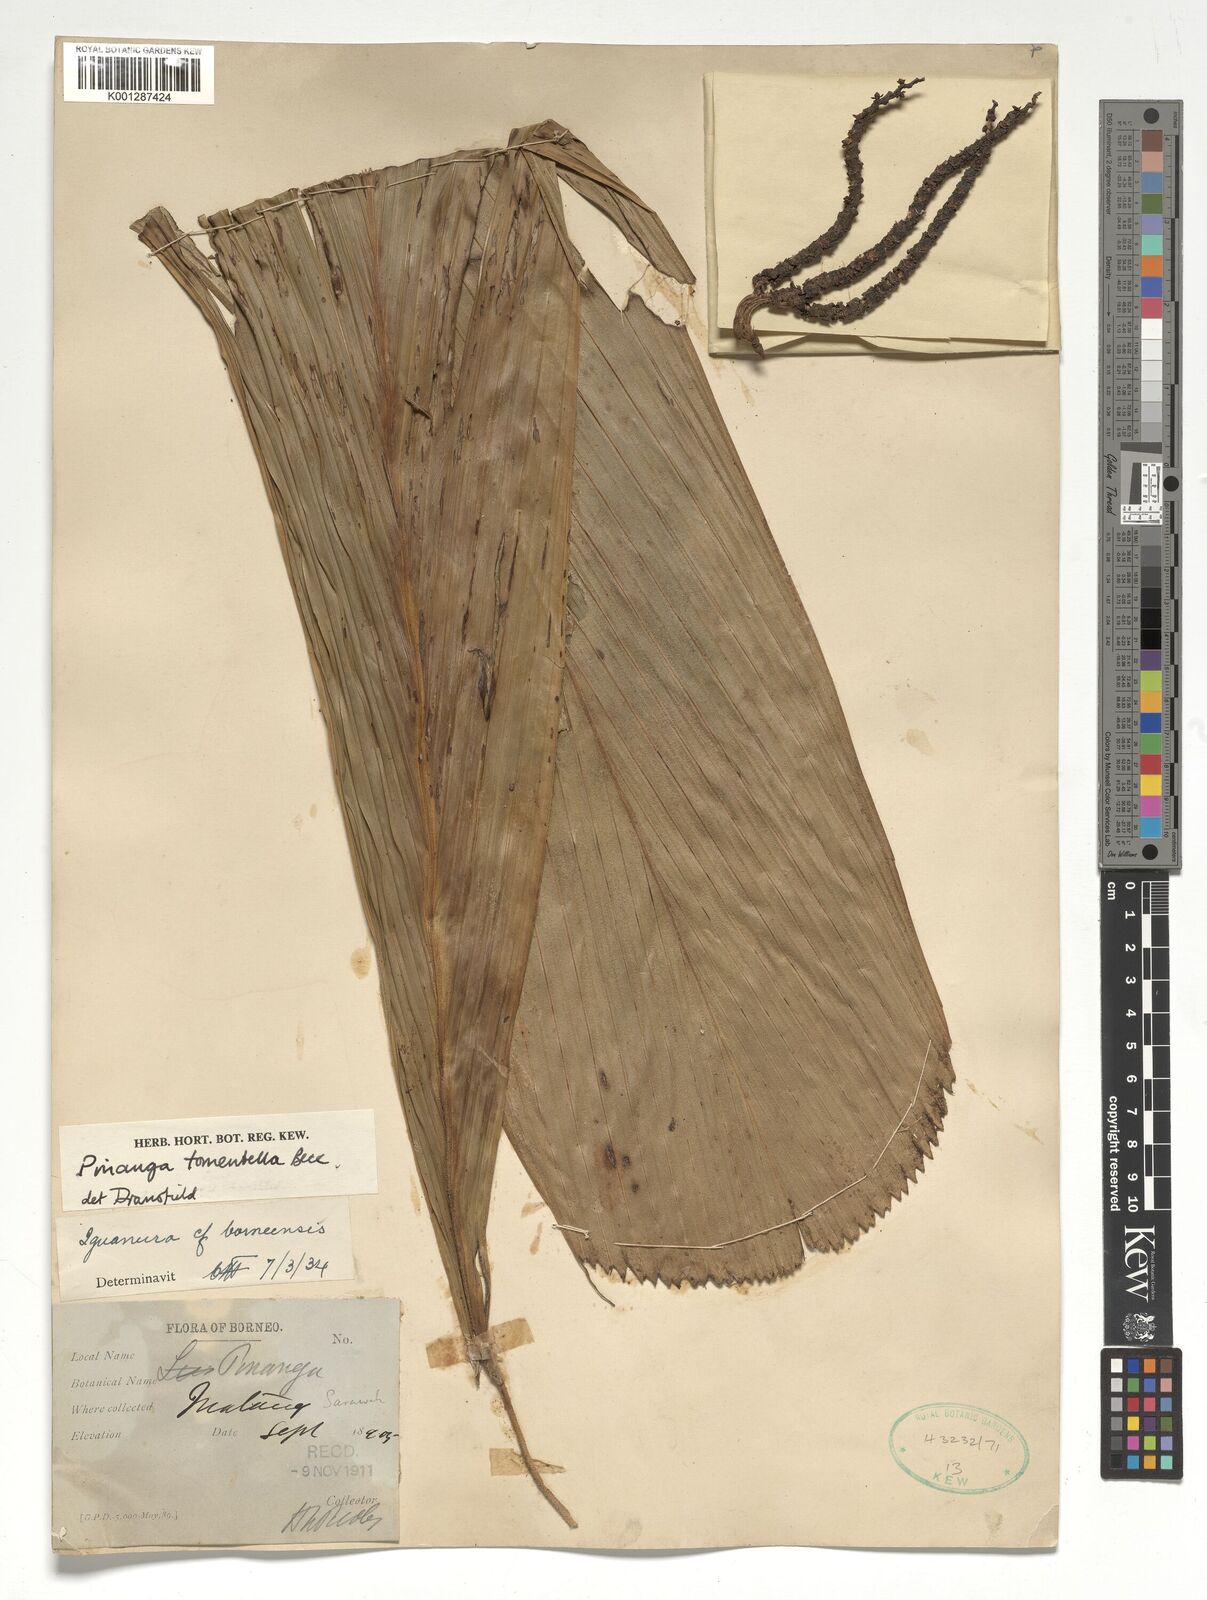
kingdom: Plantae
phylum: Tracheophyta
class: Liliopsida
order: Arecales
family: Arecaceae
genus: Pinanga
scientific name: Pinanga tomentella
